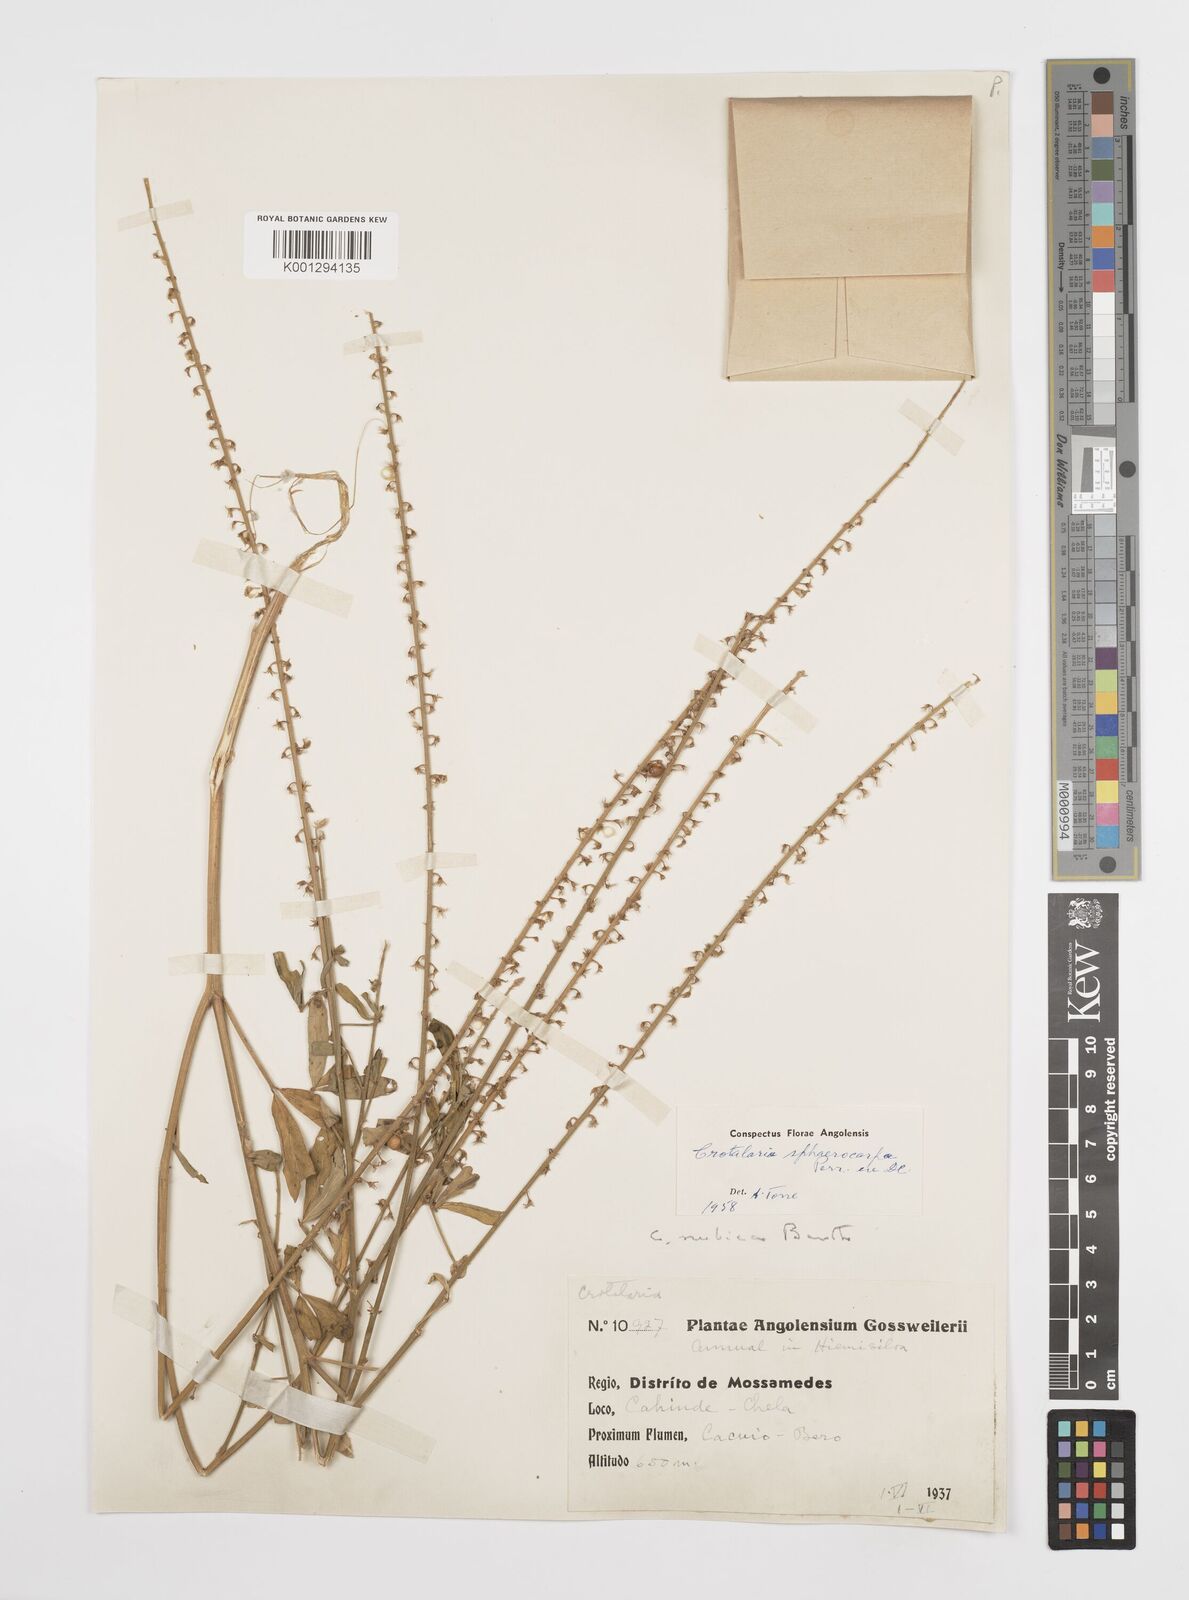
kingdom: Plantae
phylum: Tracheophyta
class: Magnoliopsida
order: Fabales
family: Fabaceae
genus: Crotalaria
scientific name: Crotalaria sphaerocarpa
